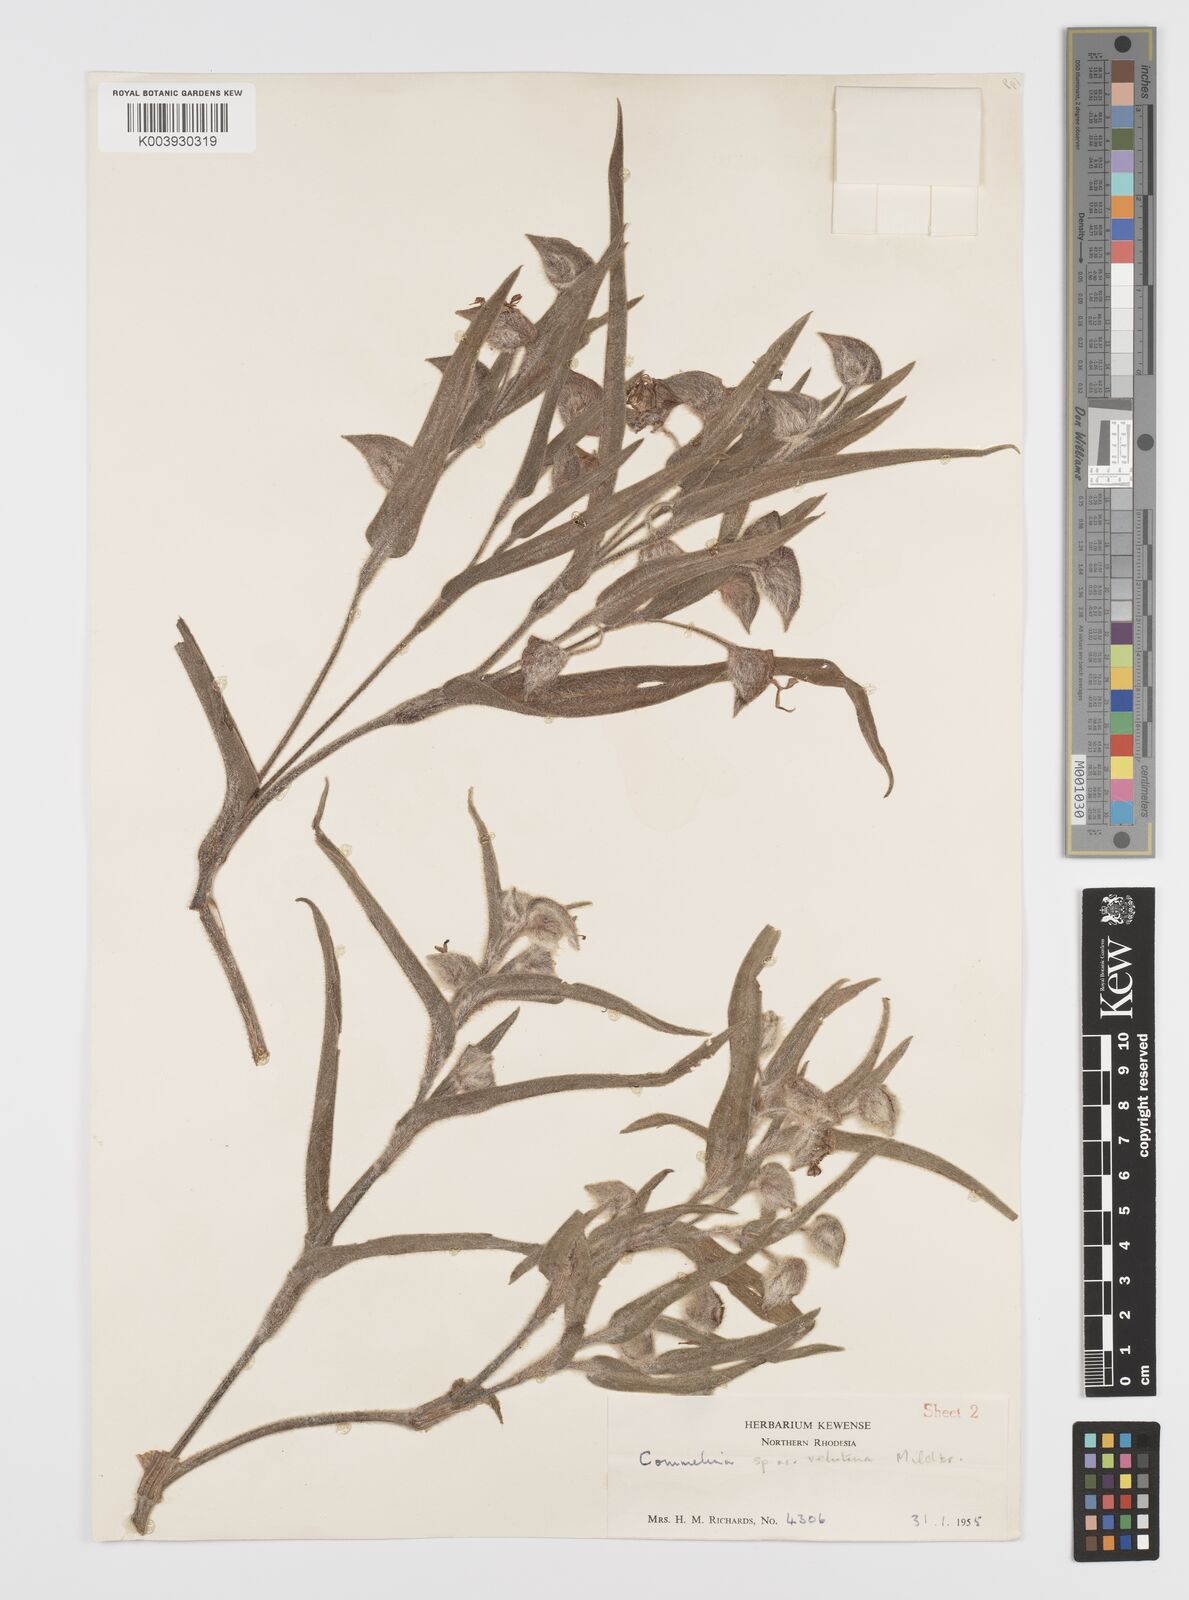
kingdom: Plantae
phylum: Tracheophyta
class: Liliopsida
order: Commelinales
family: Commelinaceae
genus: Commelina
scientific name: Commelina cecilae
